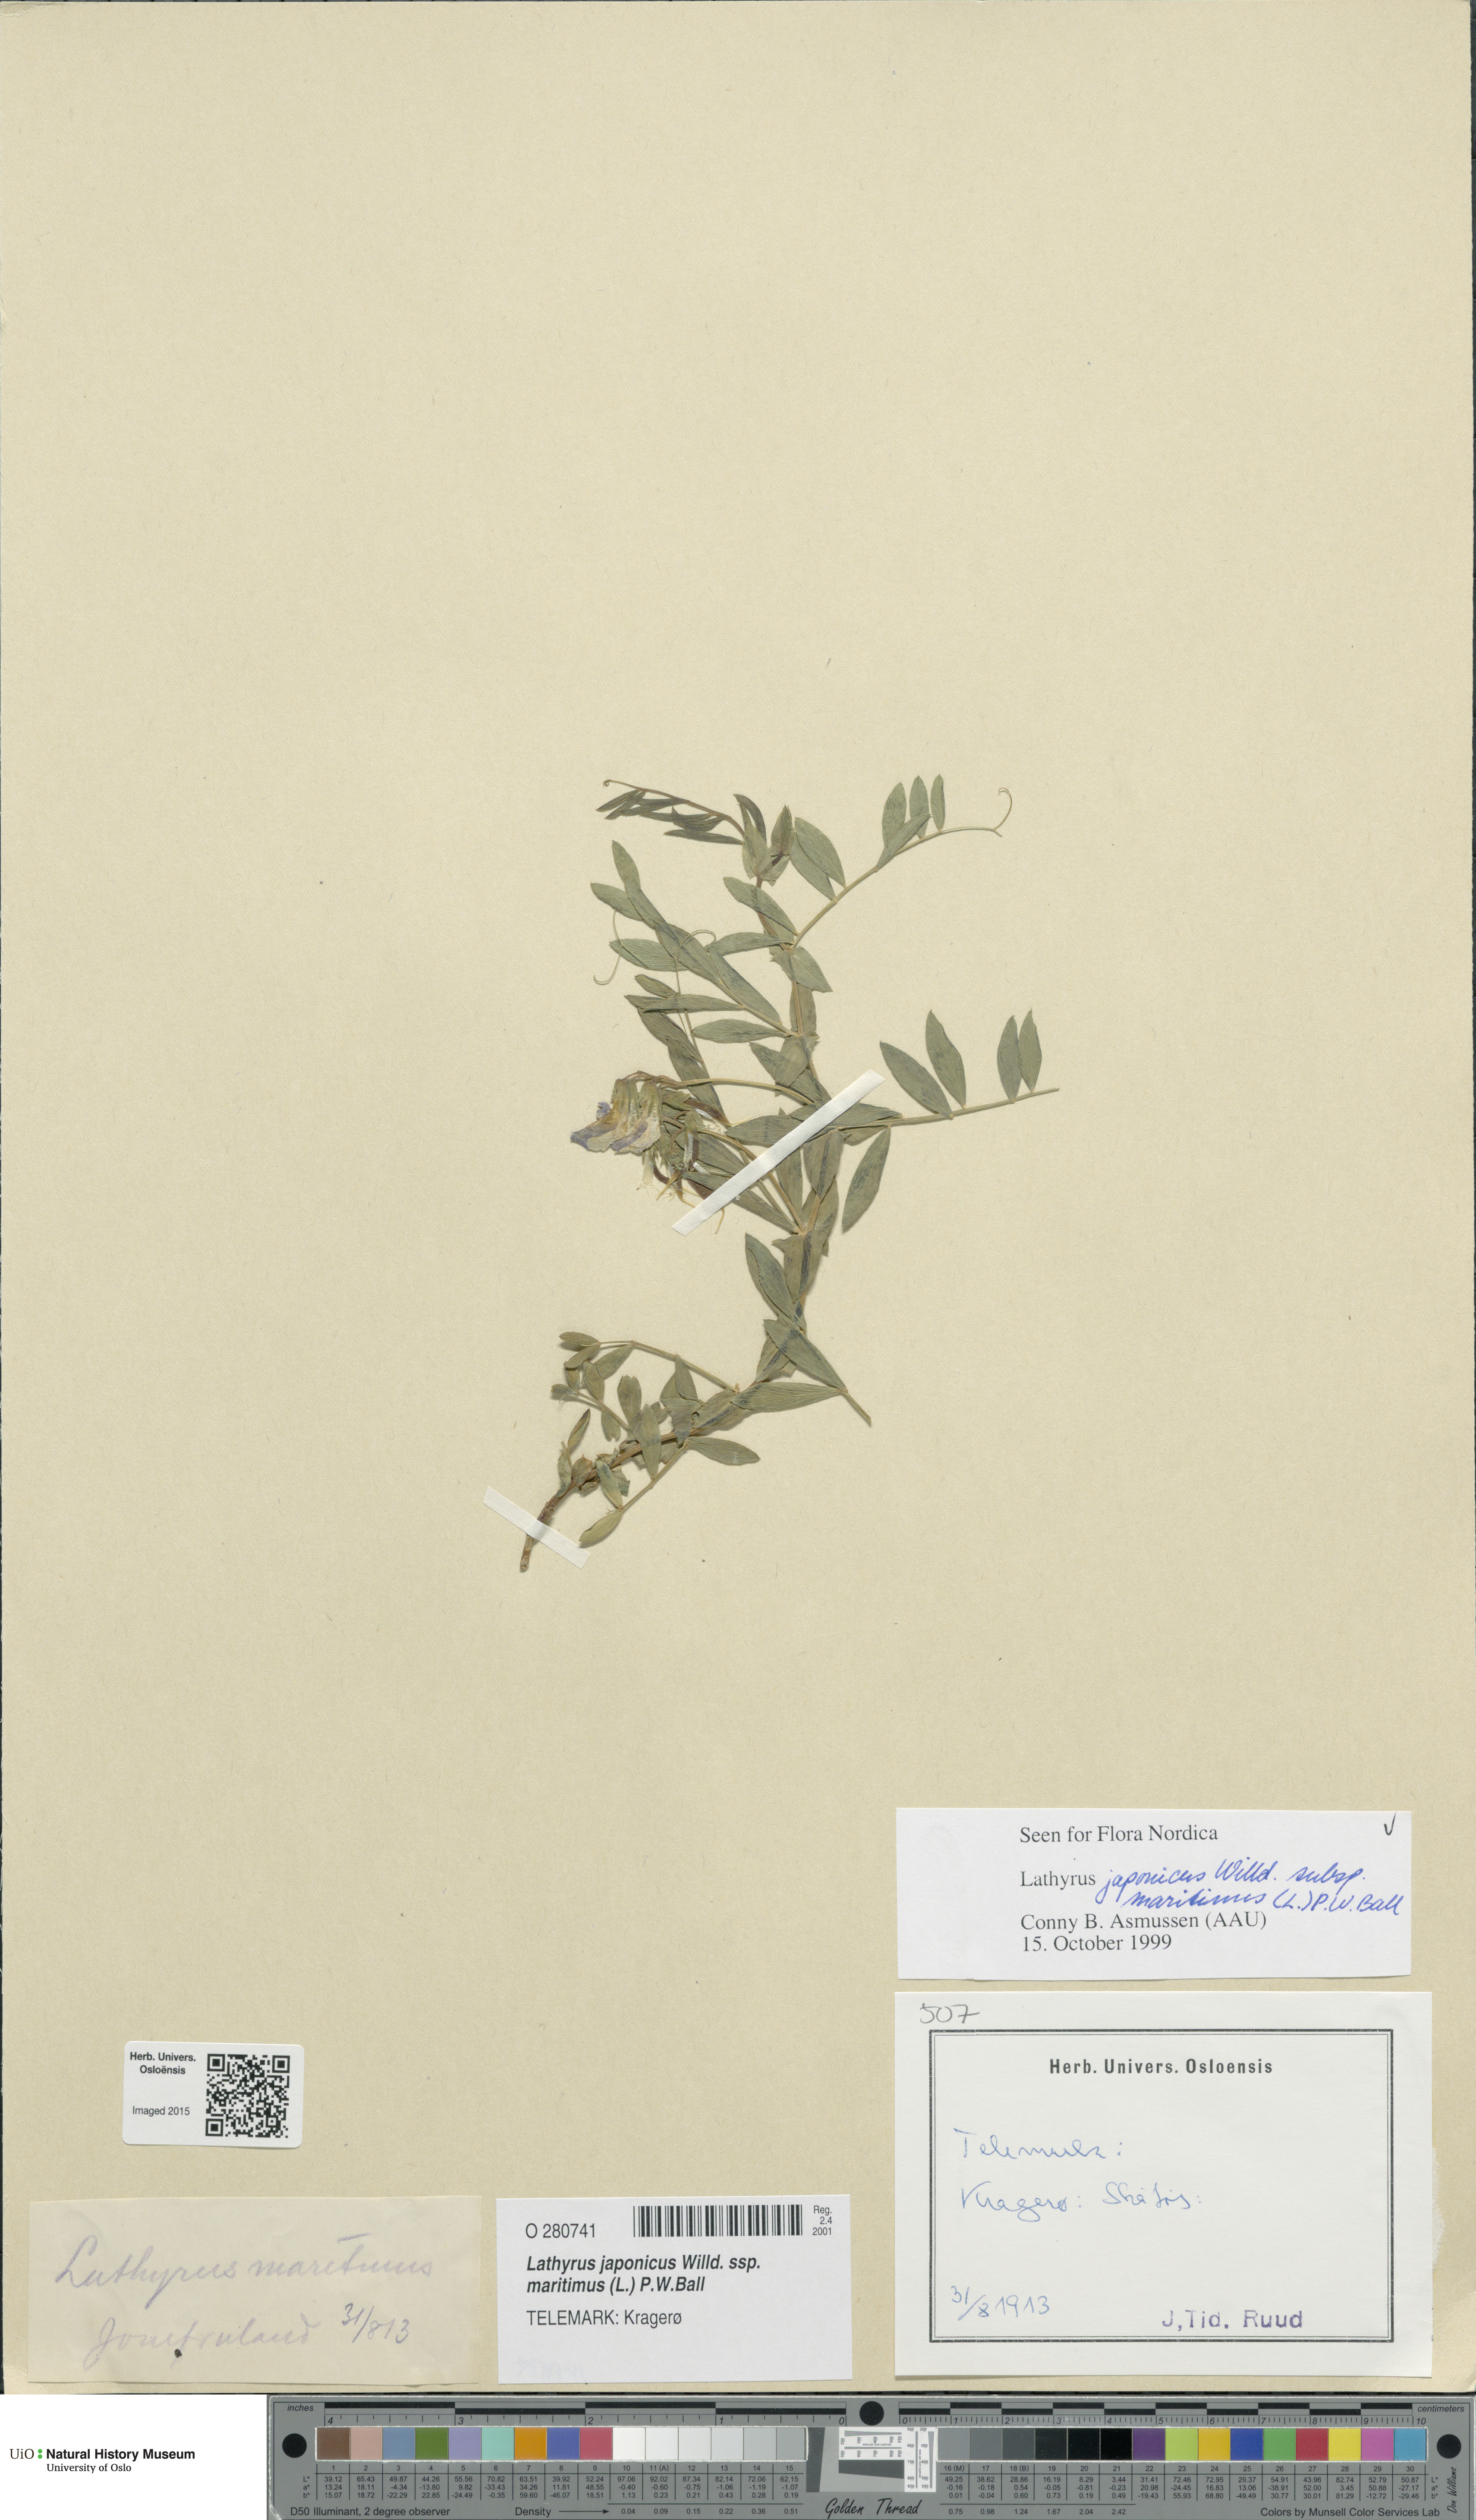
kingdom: Plantae
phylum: Tracheophyta
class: Magnoliopsida
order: Fabales
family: Fabaceae
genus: Lathyrus
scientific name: Lathyrus japonicus
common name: Sea pea
